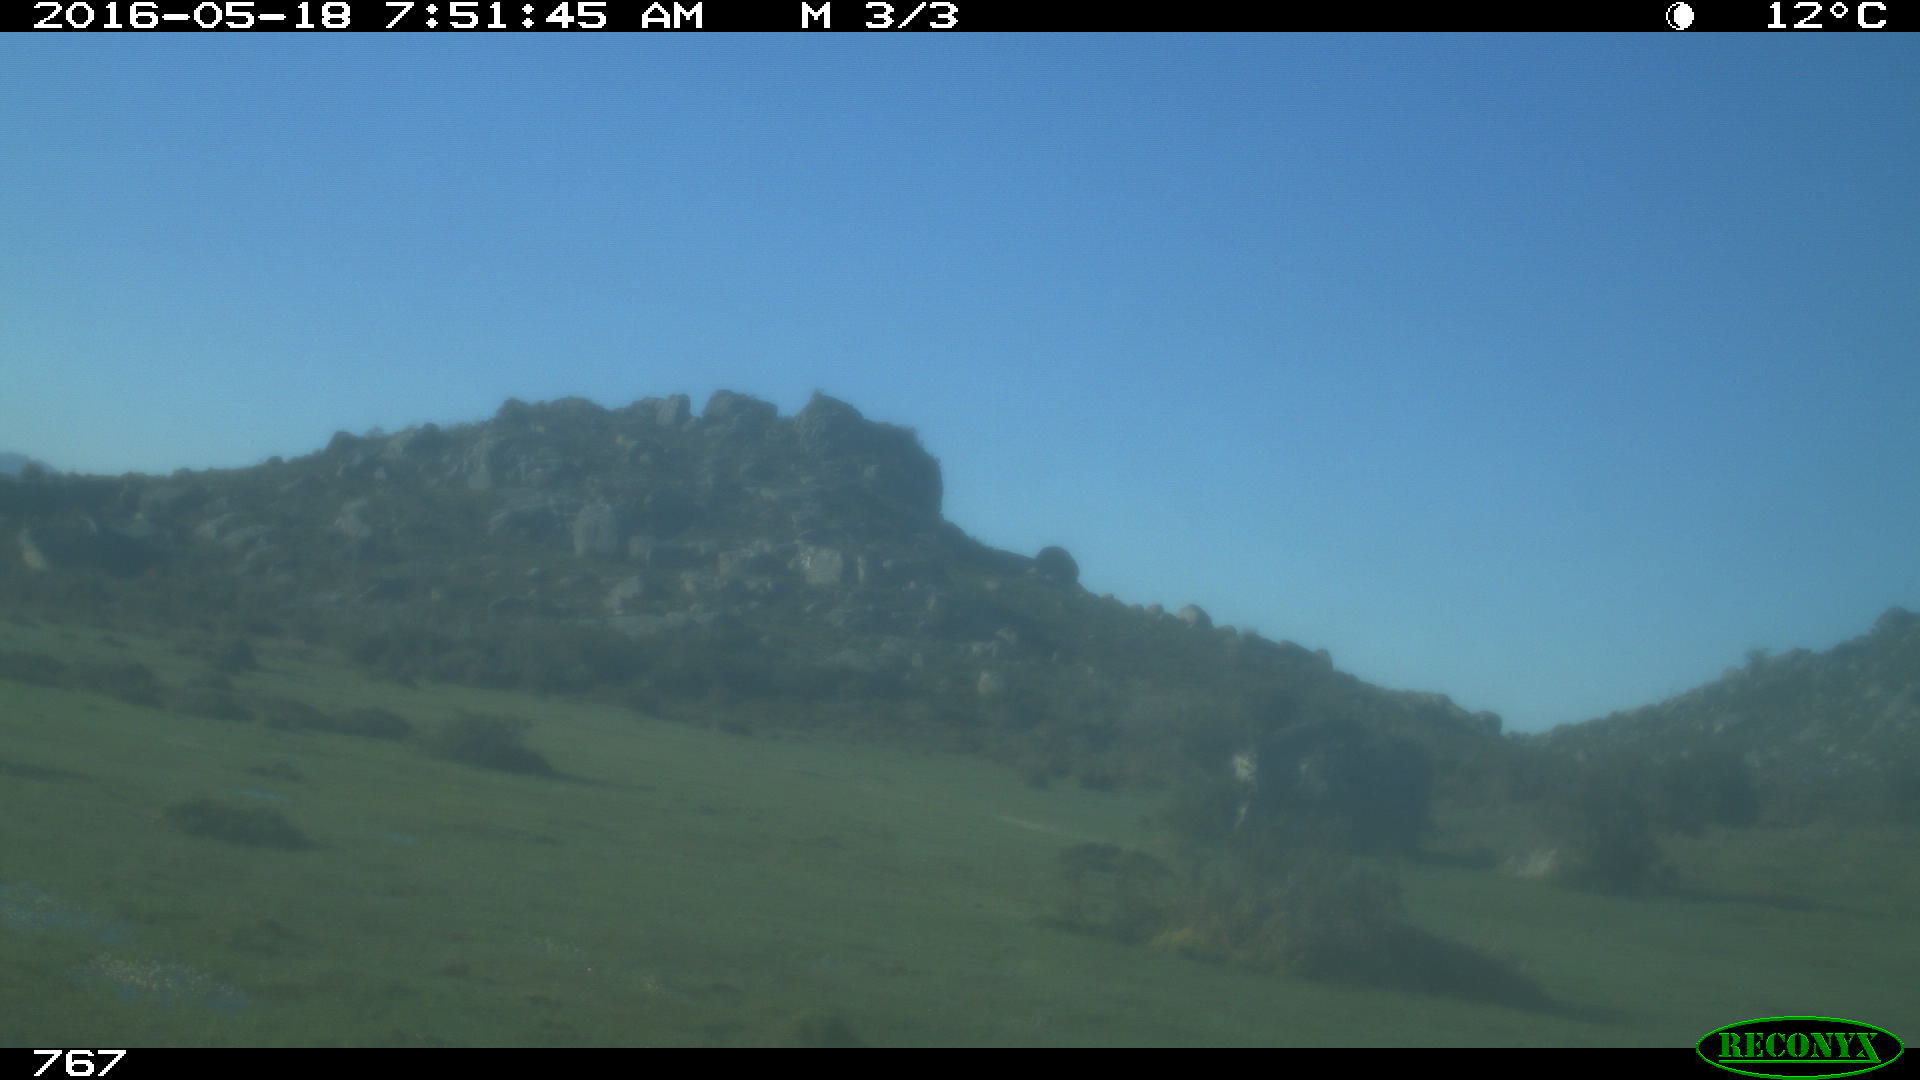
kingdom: Animalia
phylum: Chordata
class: Mammalia
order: Artiodactyla
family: Bovidae
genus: Bos
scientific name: Bos taurus
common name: Domesticated cattle
